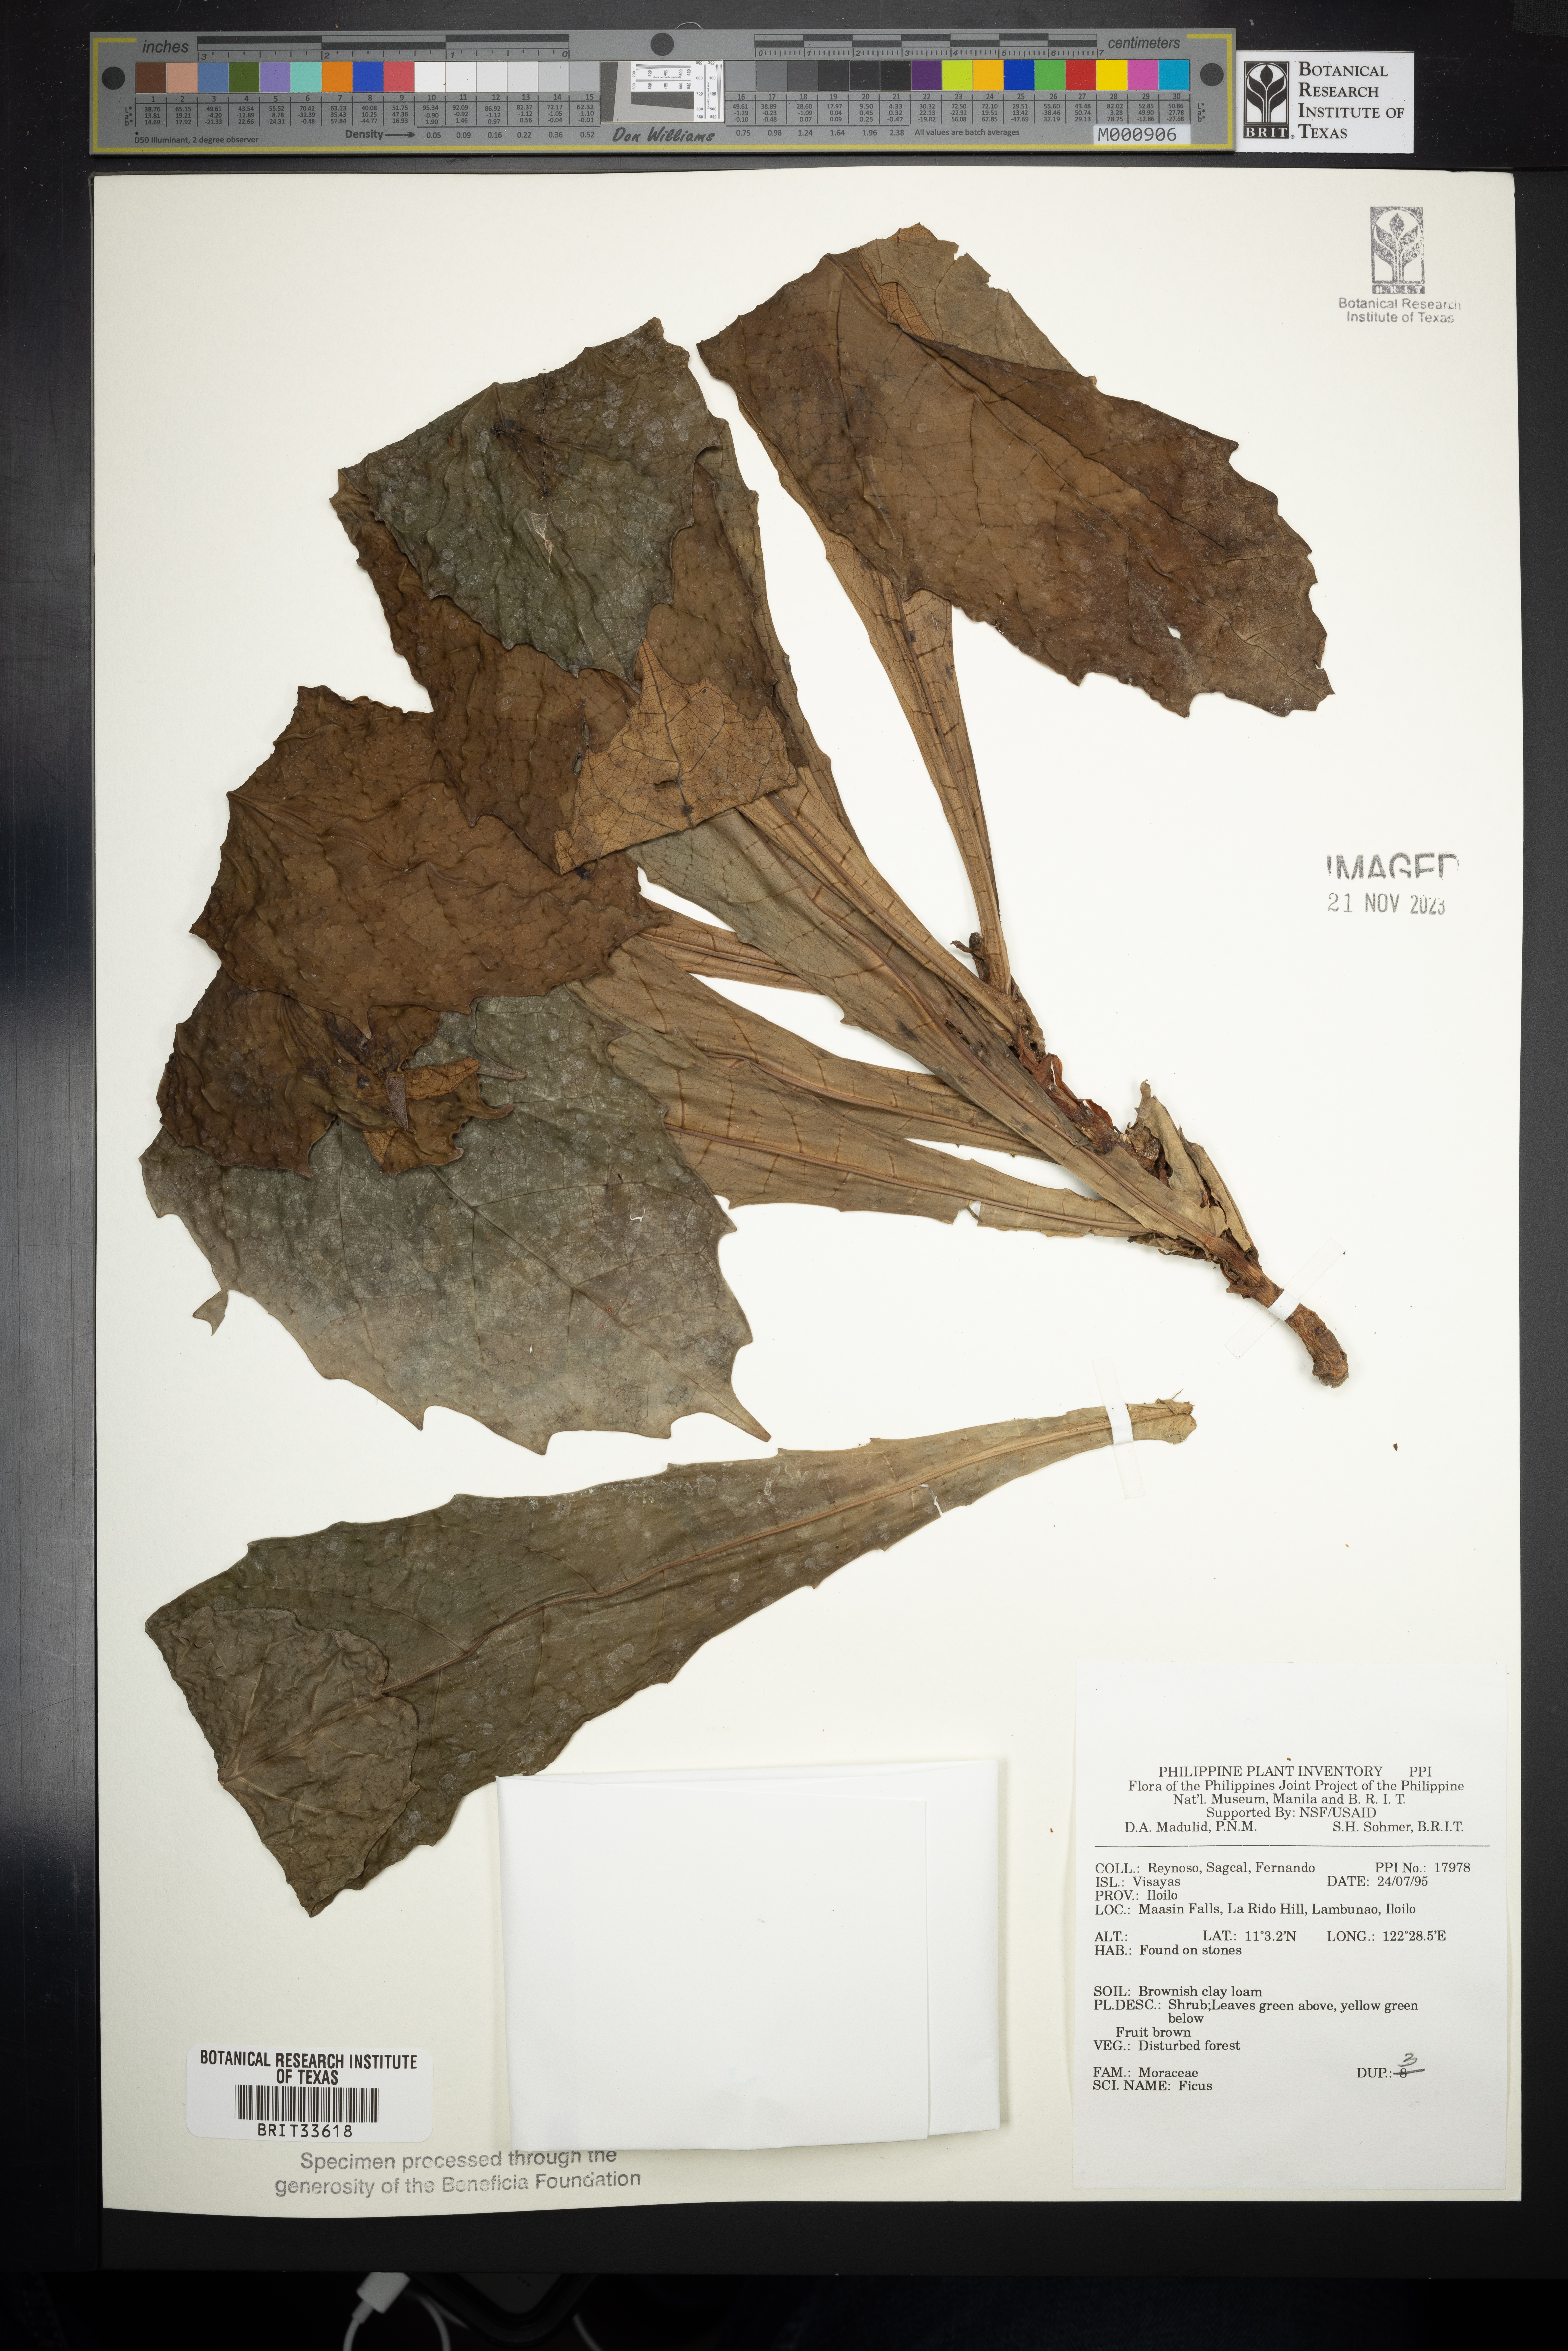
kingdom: Plantae
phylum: Tracheophyta
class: Magnoliopsida
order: Rosales
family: Moraceae
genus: Ficus
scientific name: Ficus
